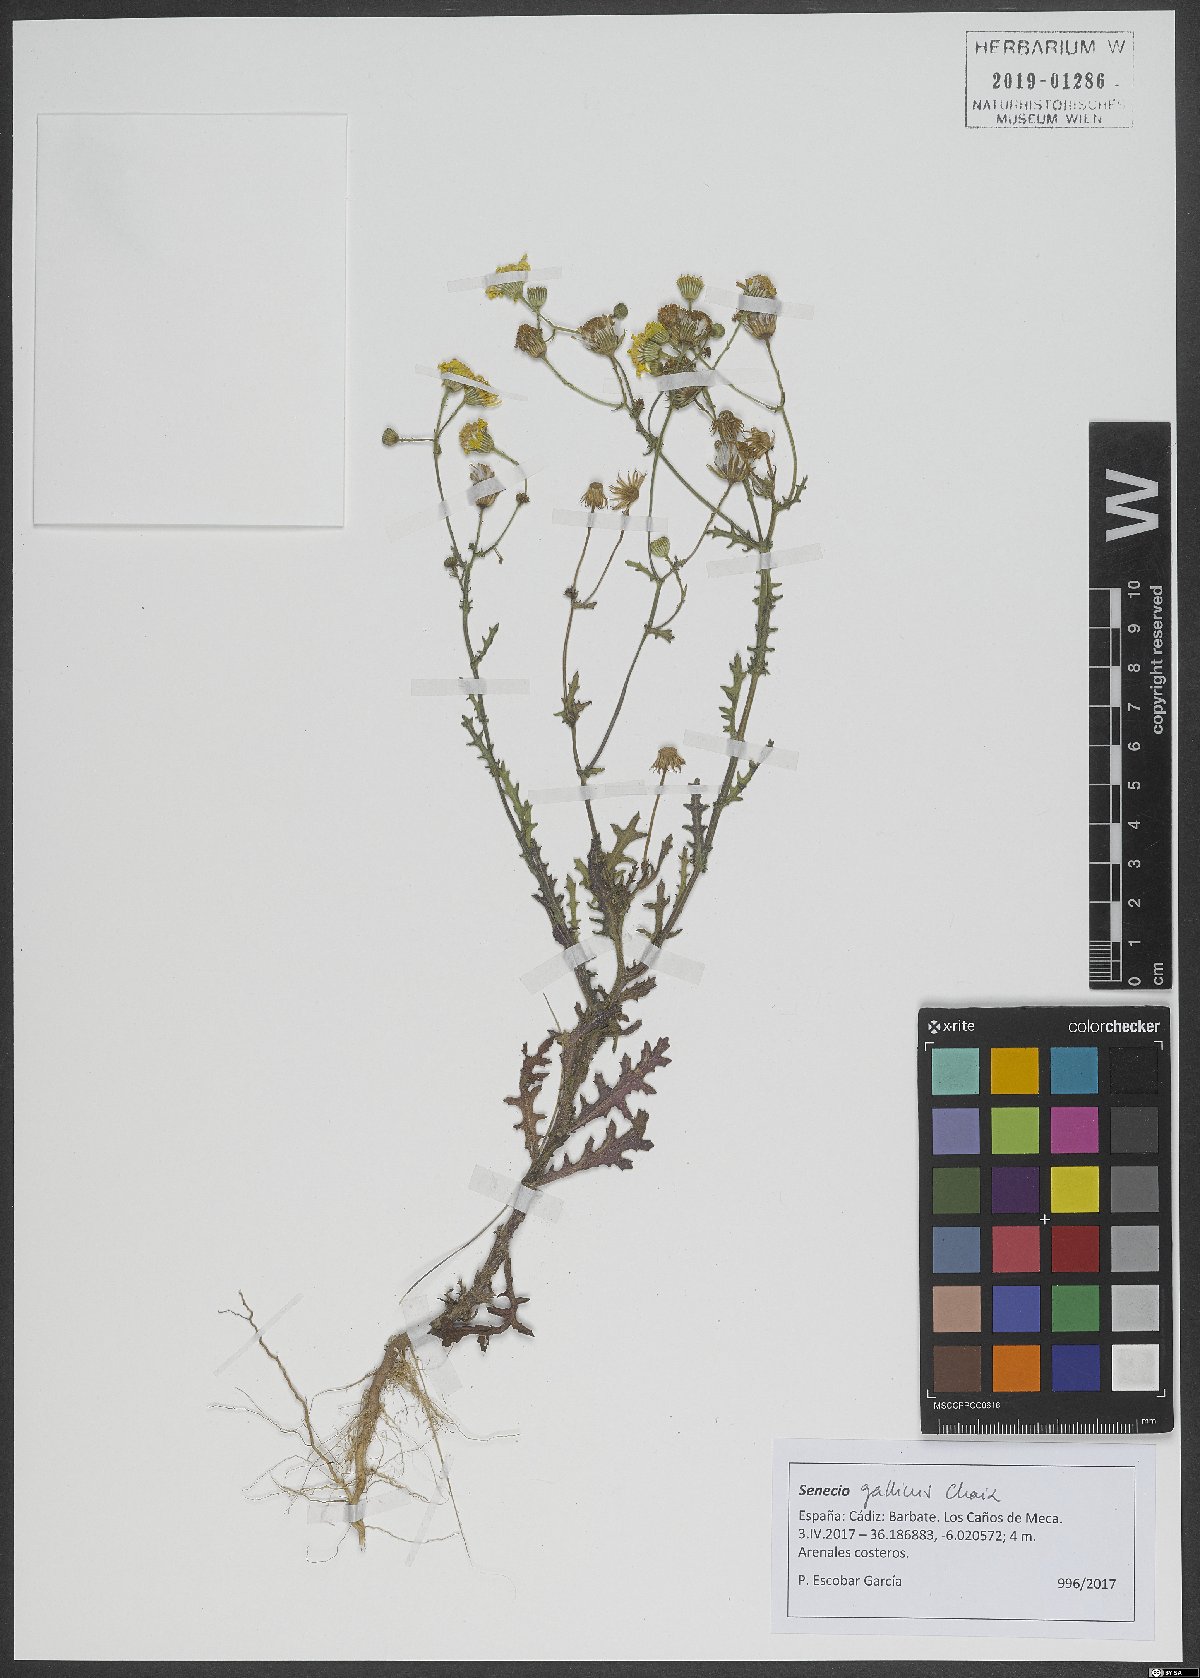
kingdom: Plantae
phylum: Tracheophyta
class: Magnoliopsida
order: Asterales
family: Asteraceae
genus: Senecio
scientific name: Senecio gallicus
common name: French groundsel
